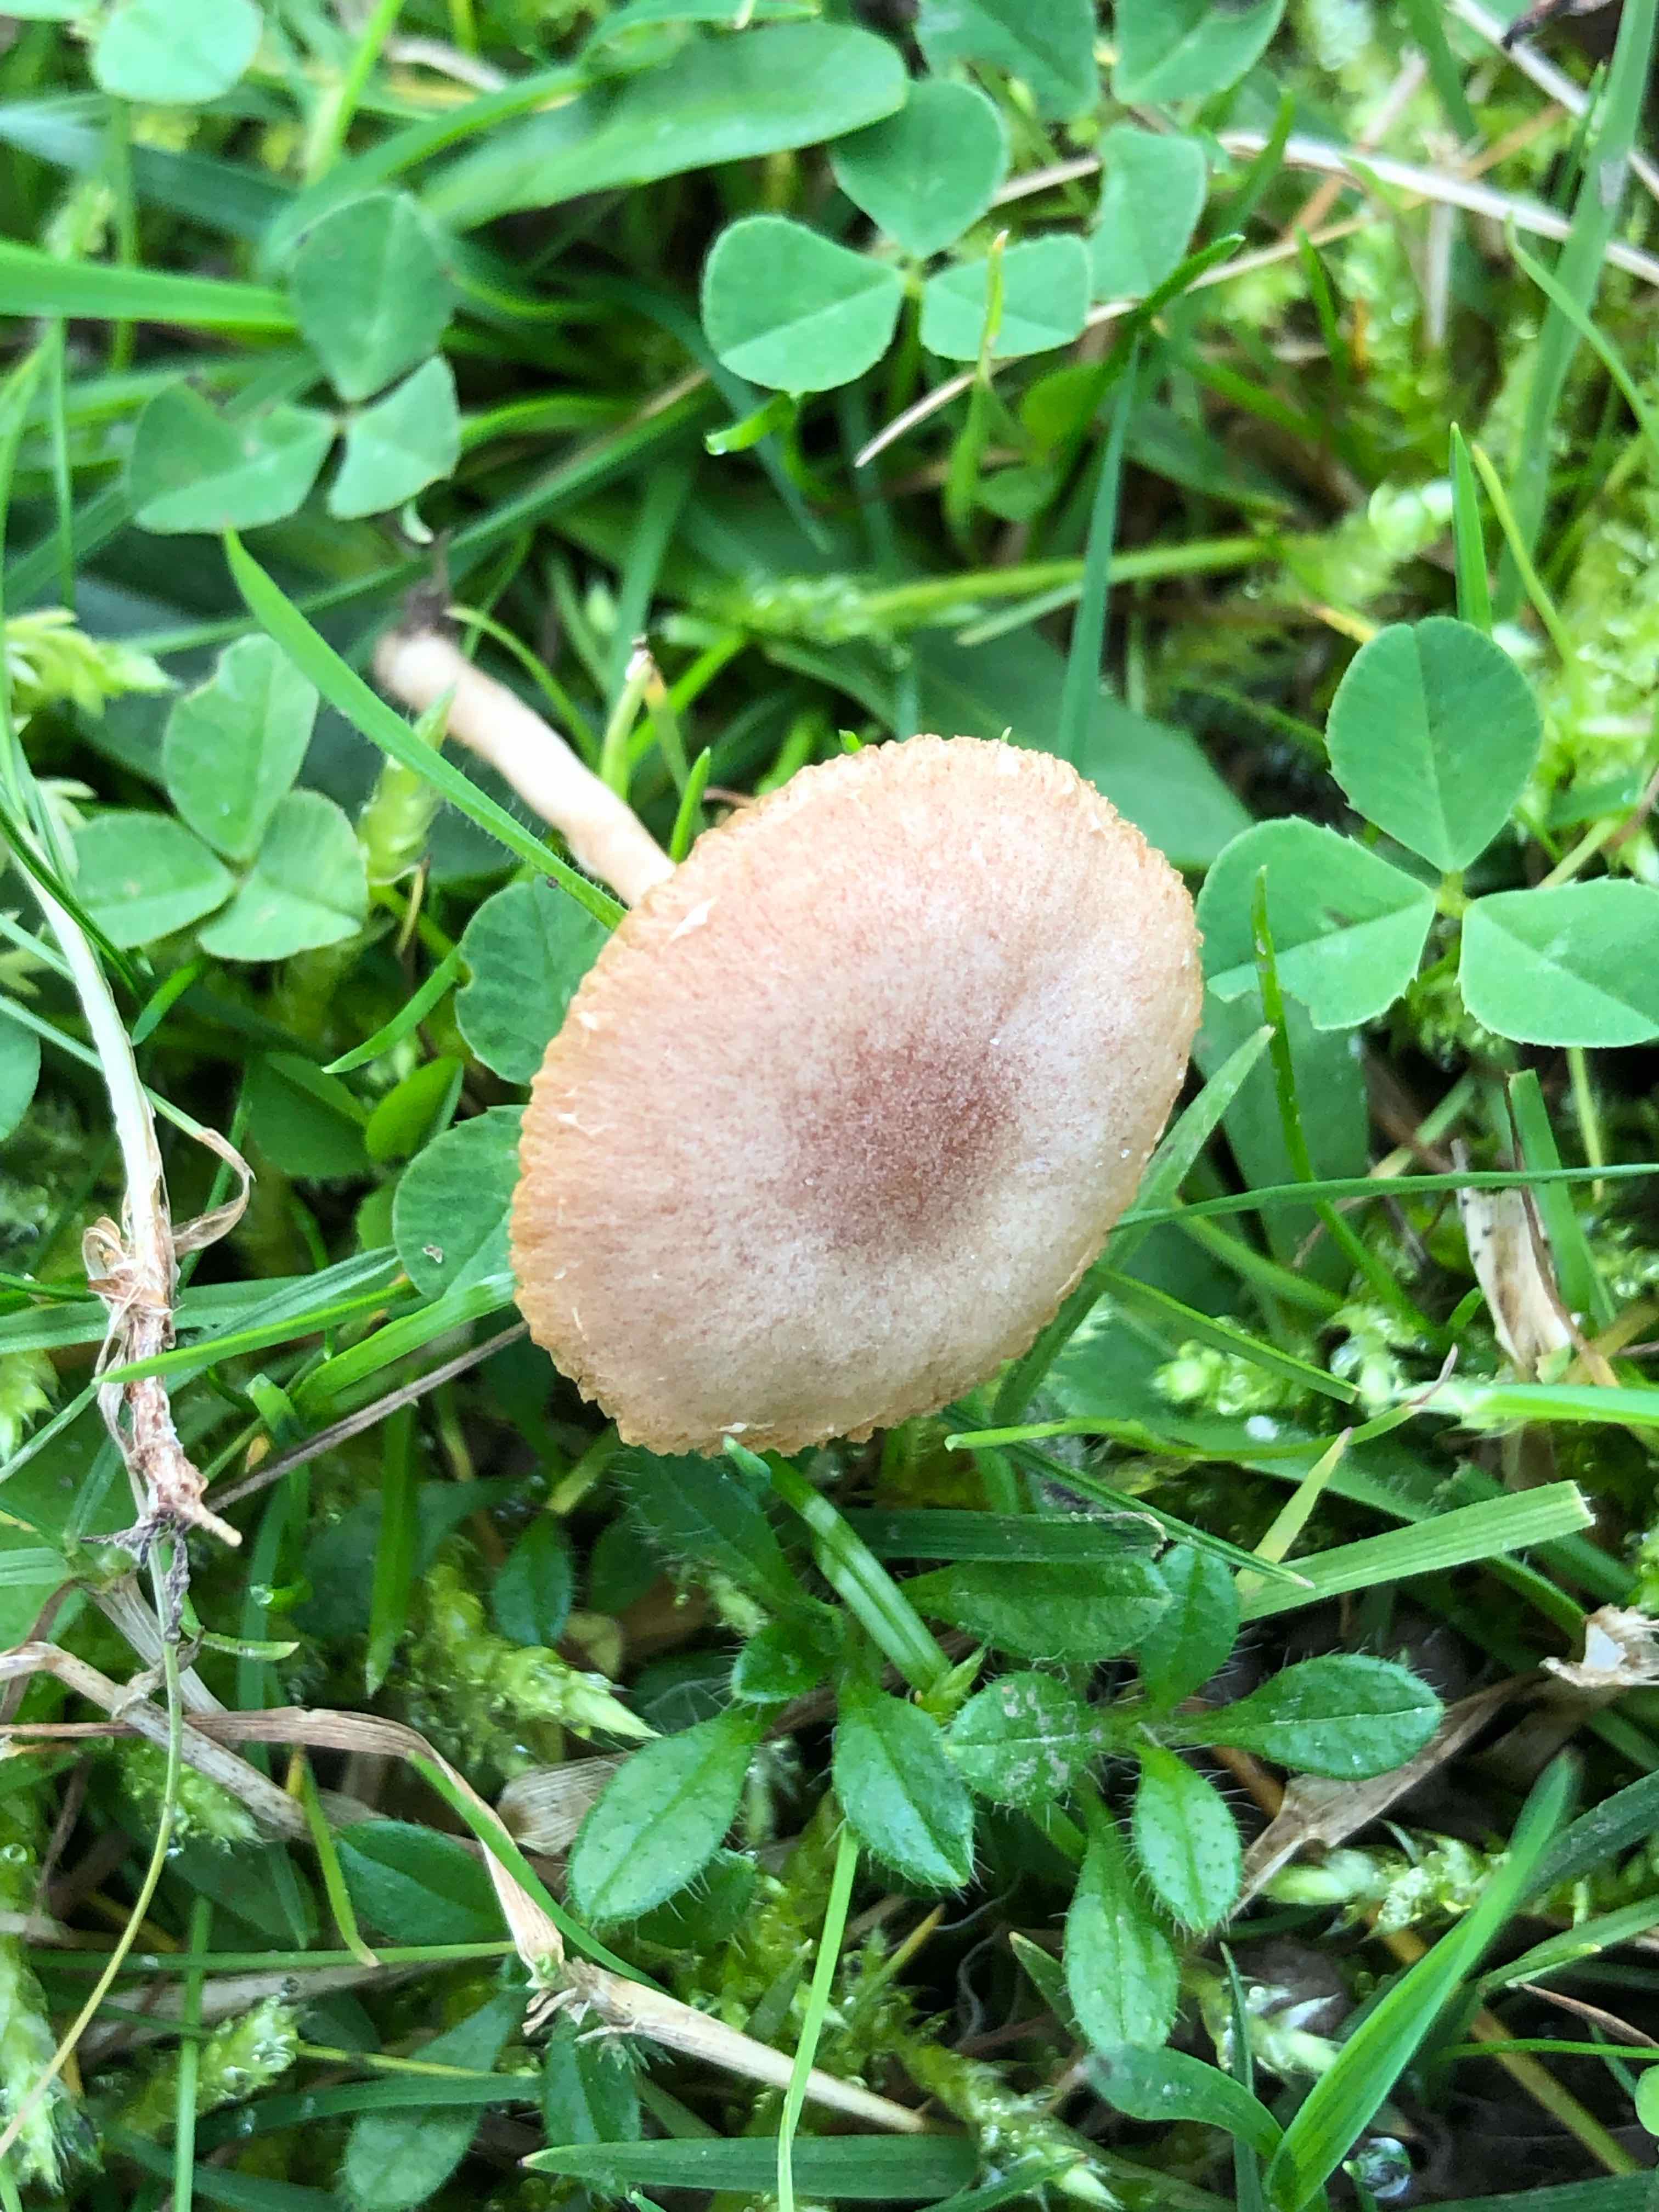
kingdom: Fungi
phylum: Basidiomycota
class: Agaricomycetes
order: Agaricales
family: Tubariaceae
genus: Tubaria
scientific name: Tubaria furfuracea
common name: kliddet fnughat
